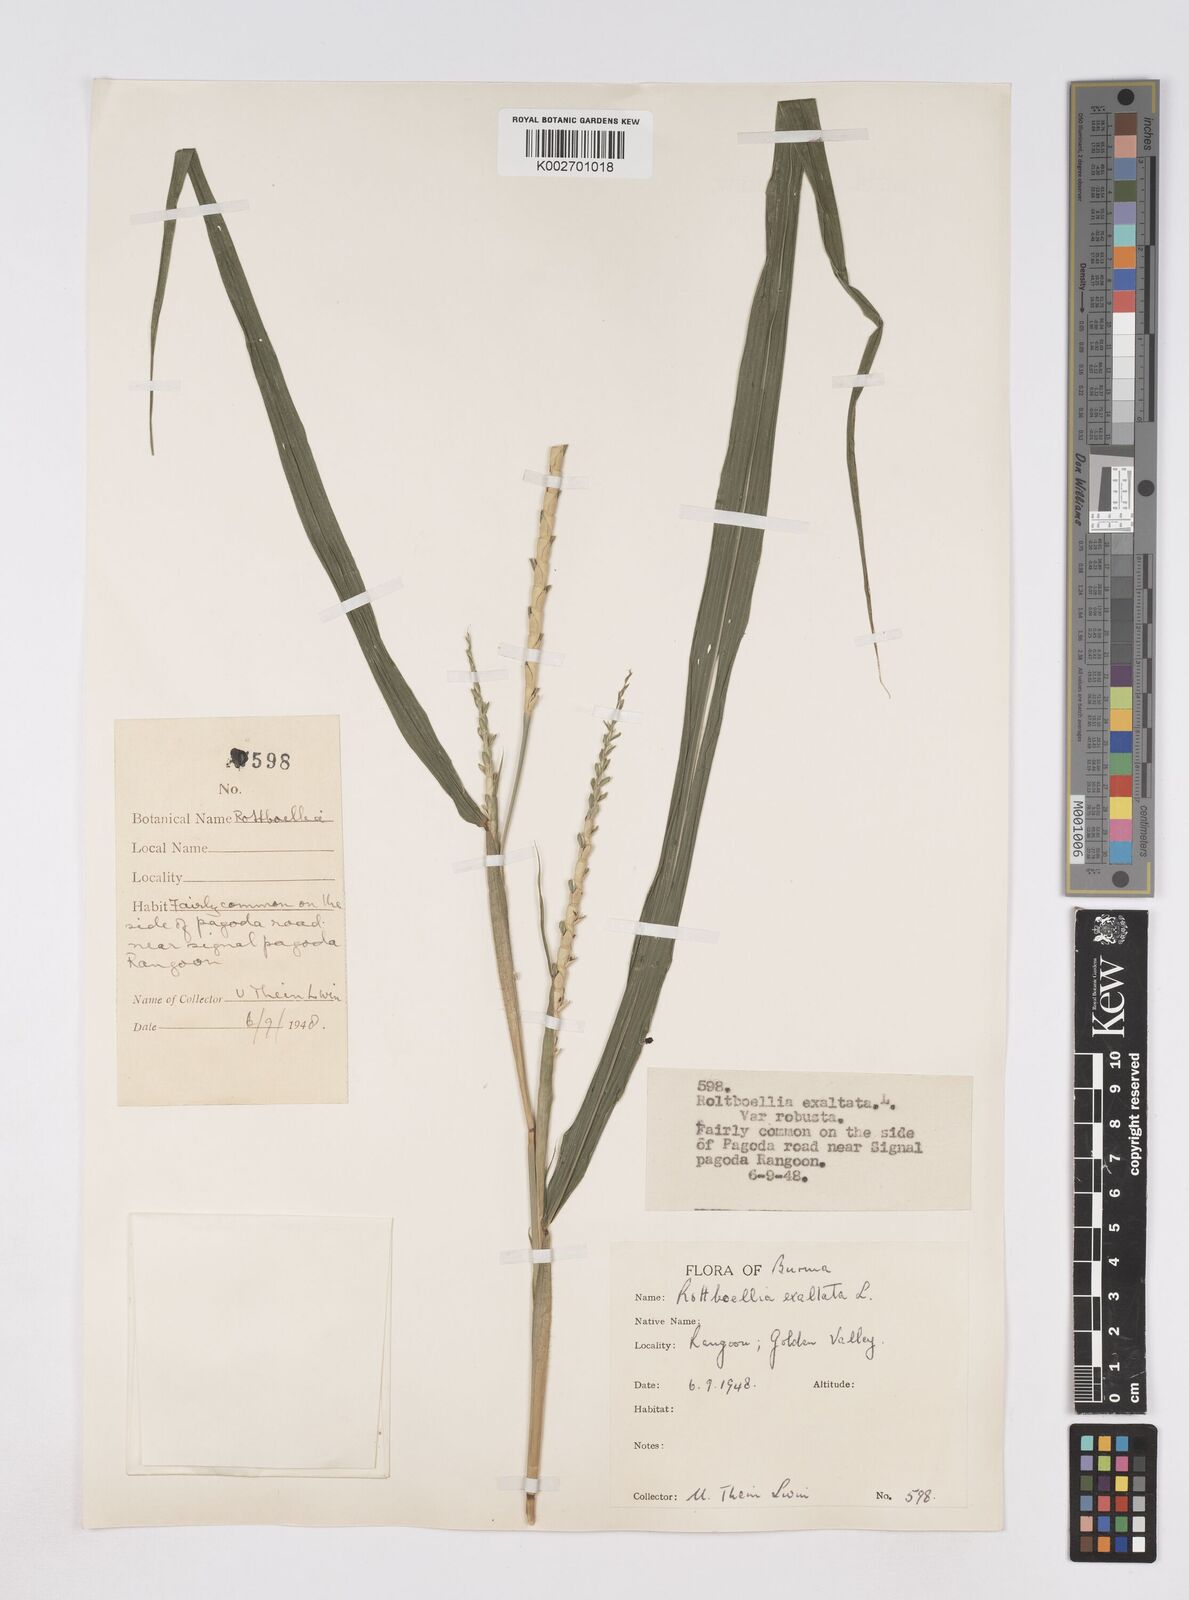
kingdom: Plantae
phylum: Tracheophyta
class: Liliopsida
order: Poales
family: Poaceae
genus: Ophiuros
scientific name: Ophiuros exaltatus
